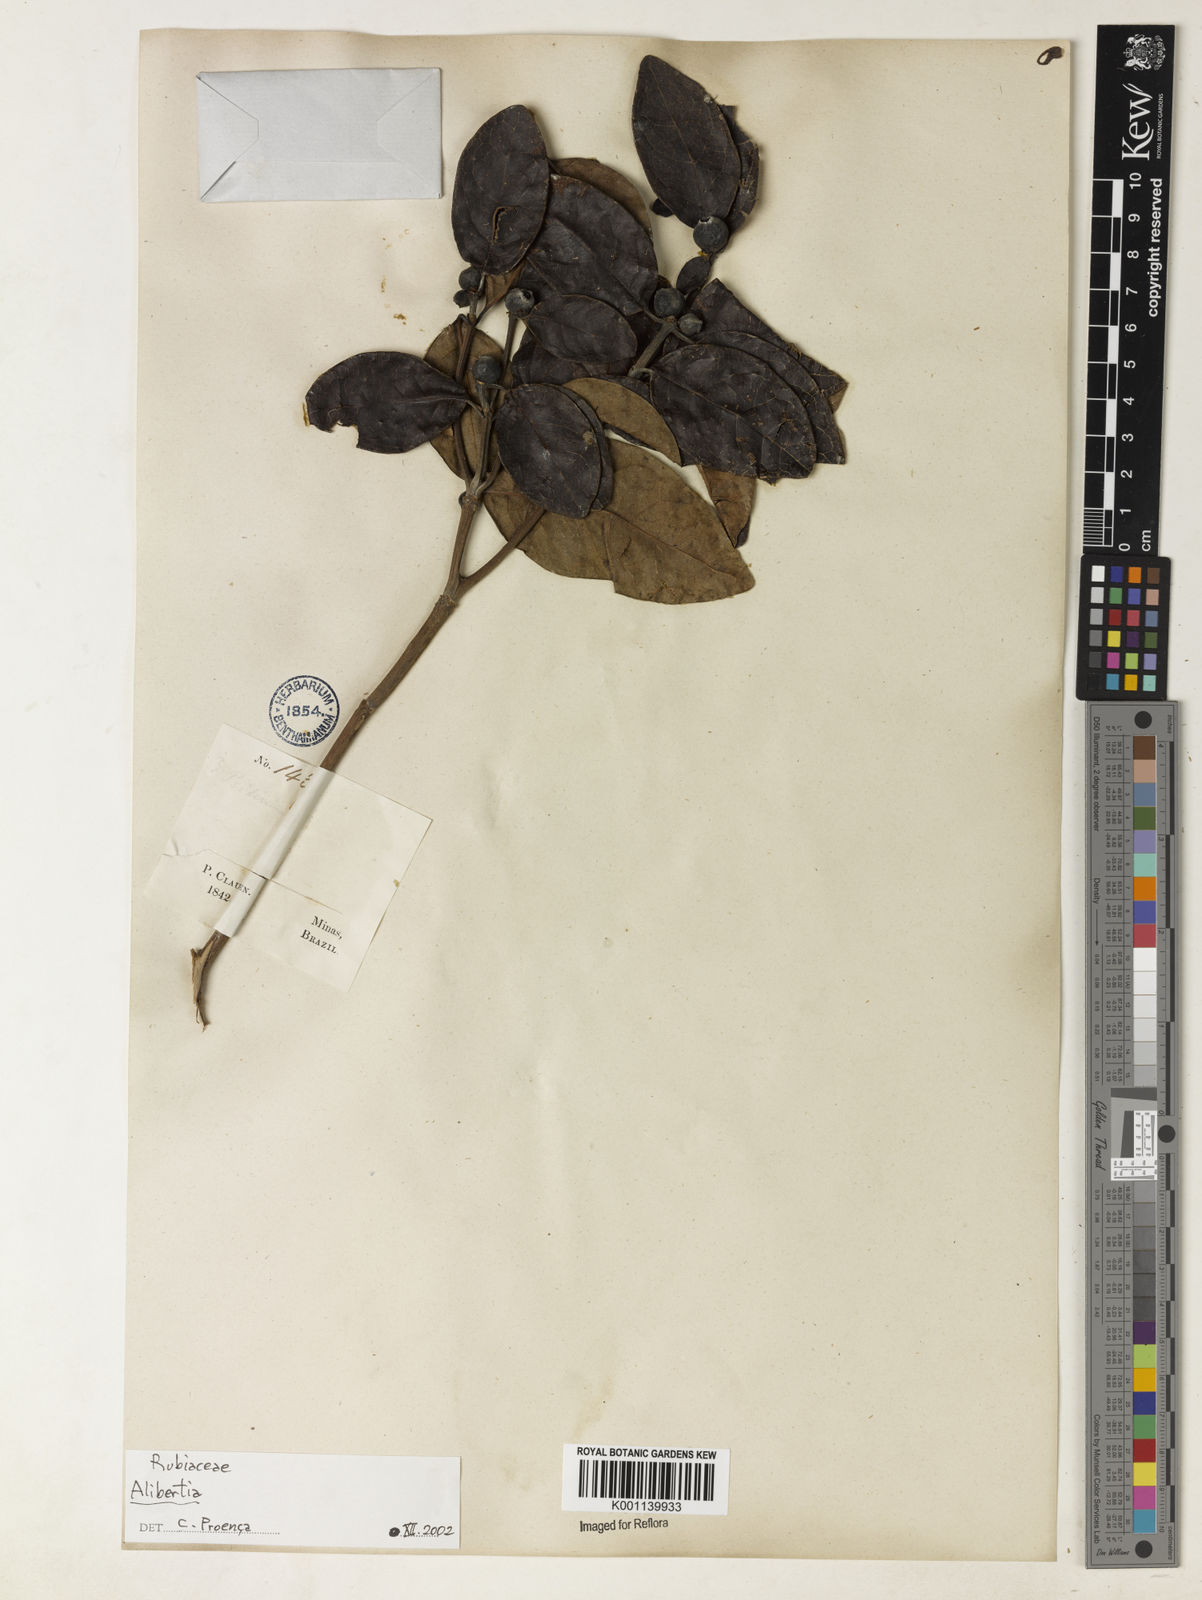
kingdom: Plantae
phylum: Tracheophyta
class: Magnoliopsida
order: Gentianales
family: Rubiaceae
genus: Alibertia
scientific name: Alibertia
